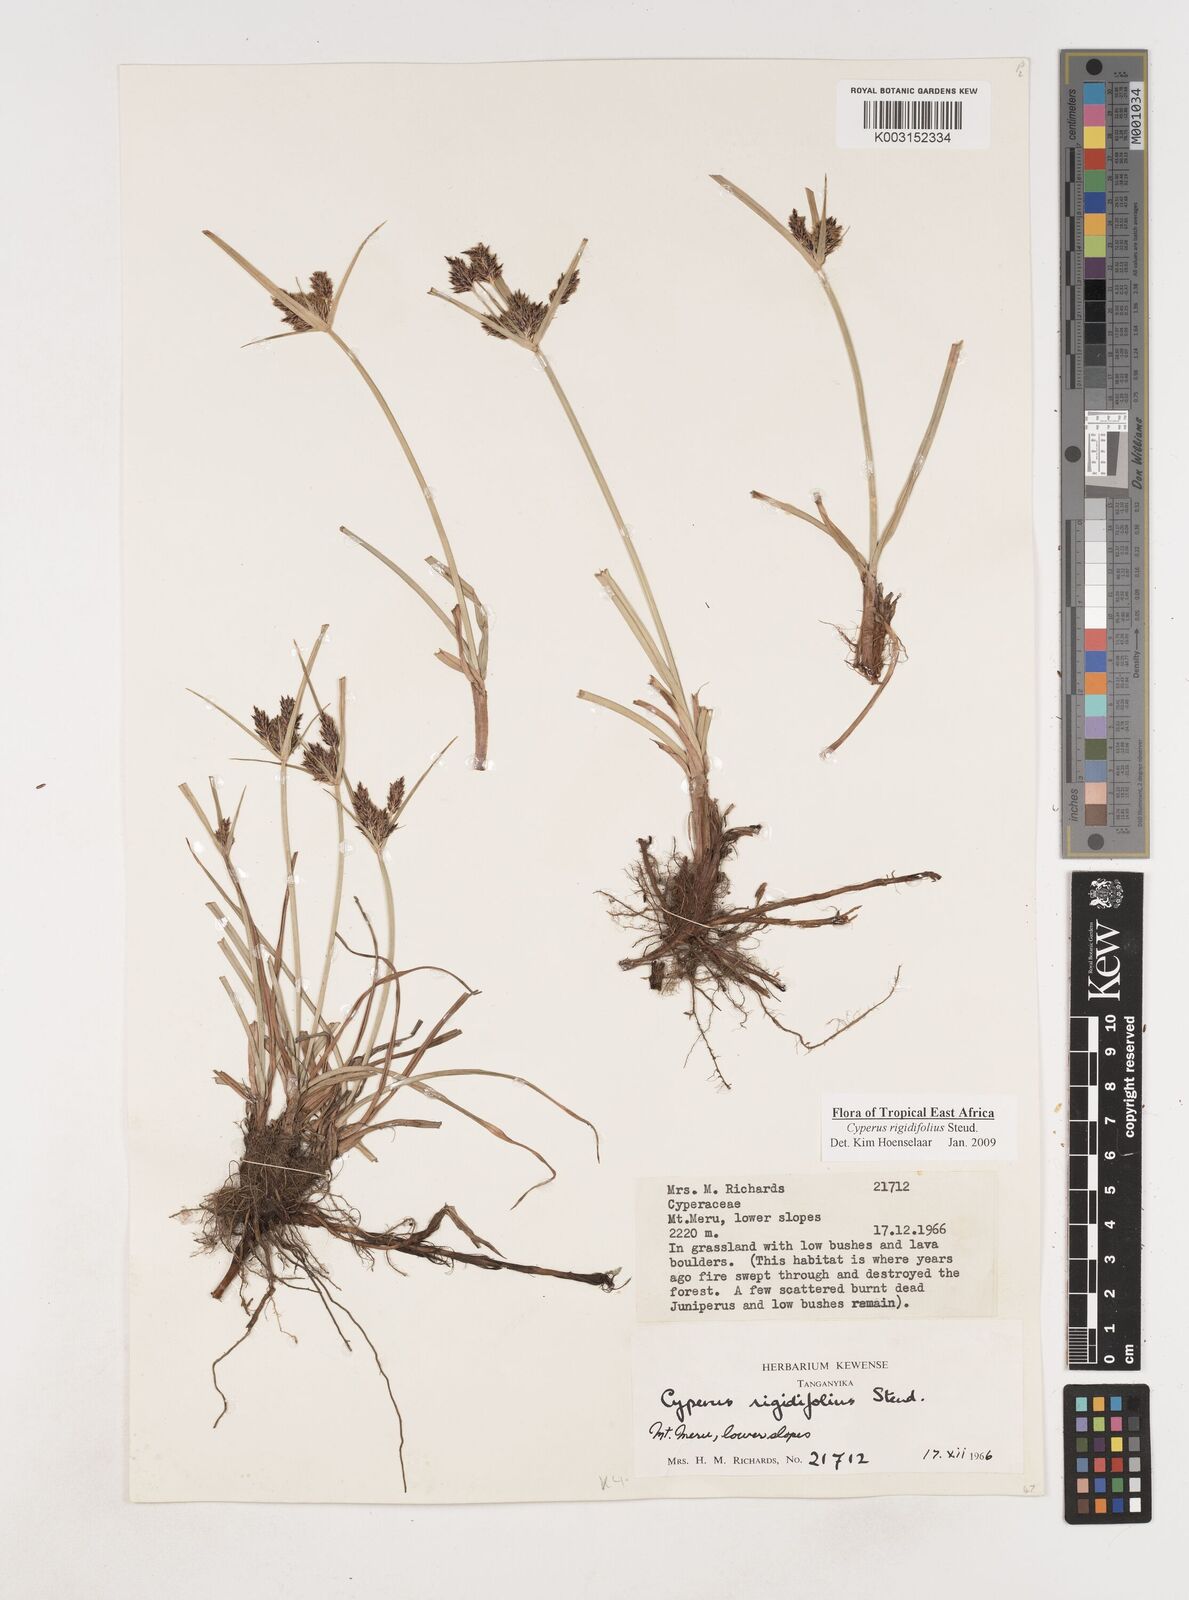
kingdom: Plantae
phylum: Tracheophyta
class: Liliopsida
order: Poales
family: Cyperaceae
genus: Cyperus
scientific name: Cyperus rigidifolius
